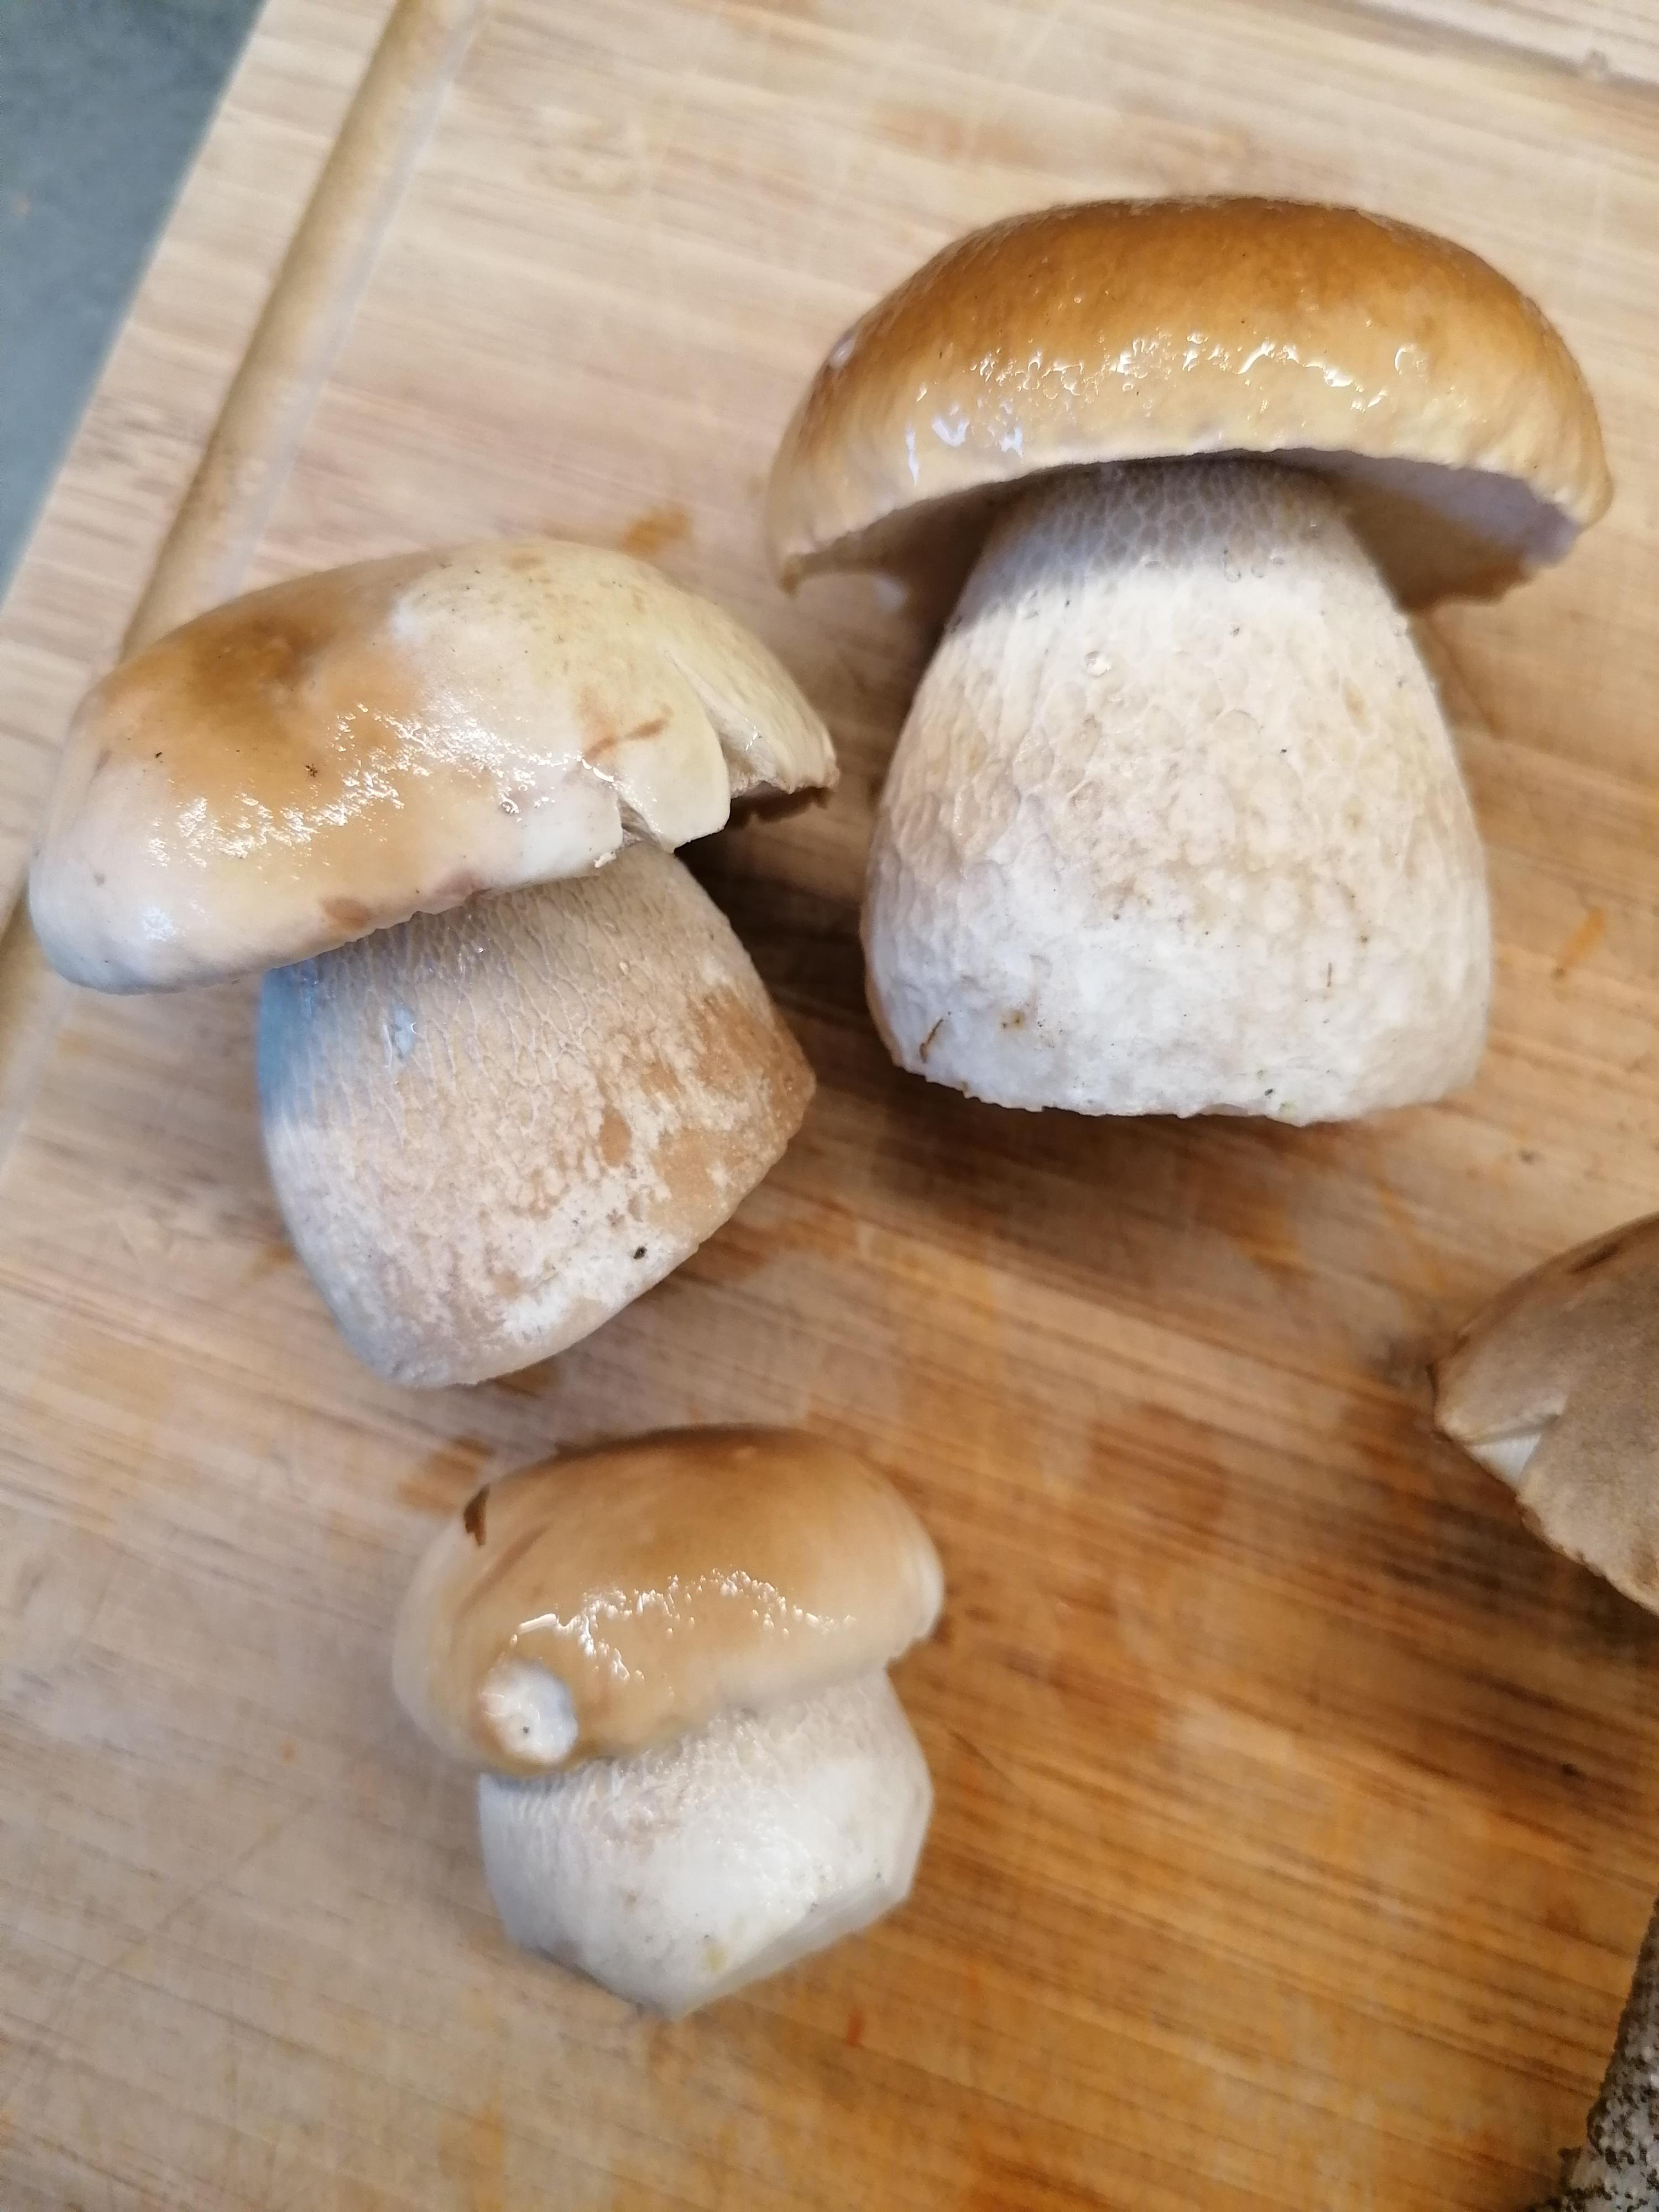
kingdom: Fungi
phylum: Basidiomycota
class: Agaricomycetes
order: Boletales
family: Boletaceae
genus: Boletus
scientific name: Boletus edulis
